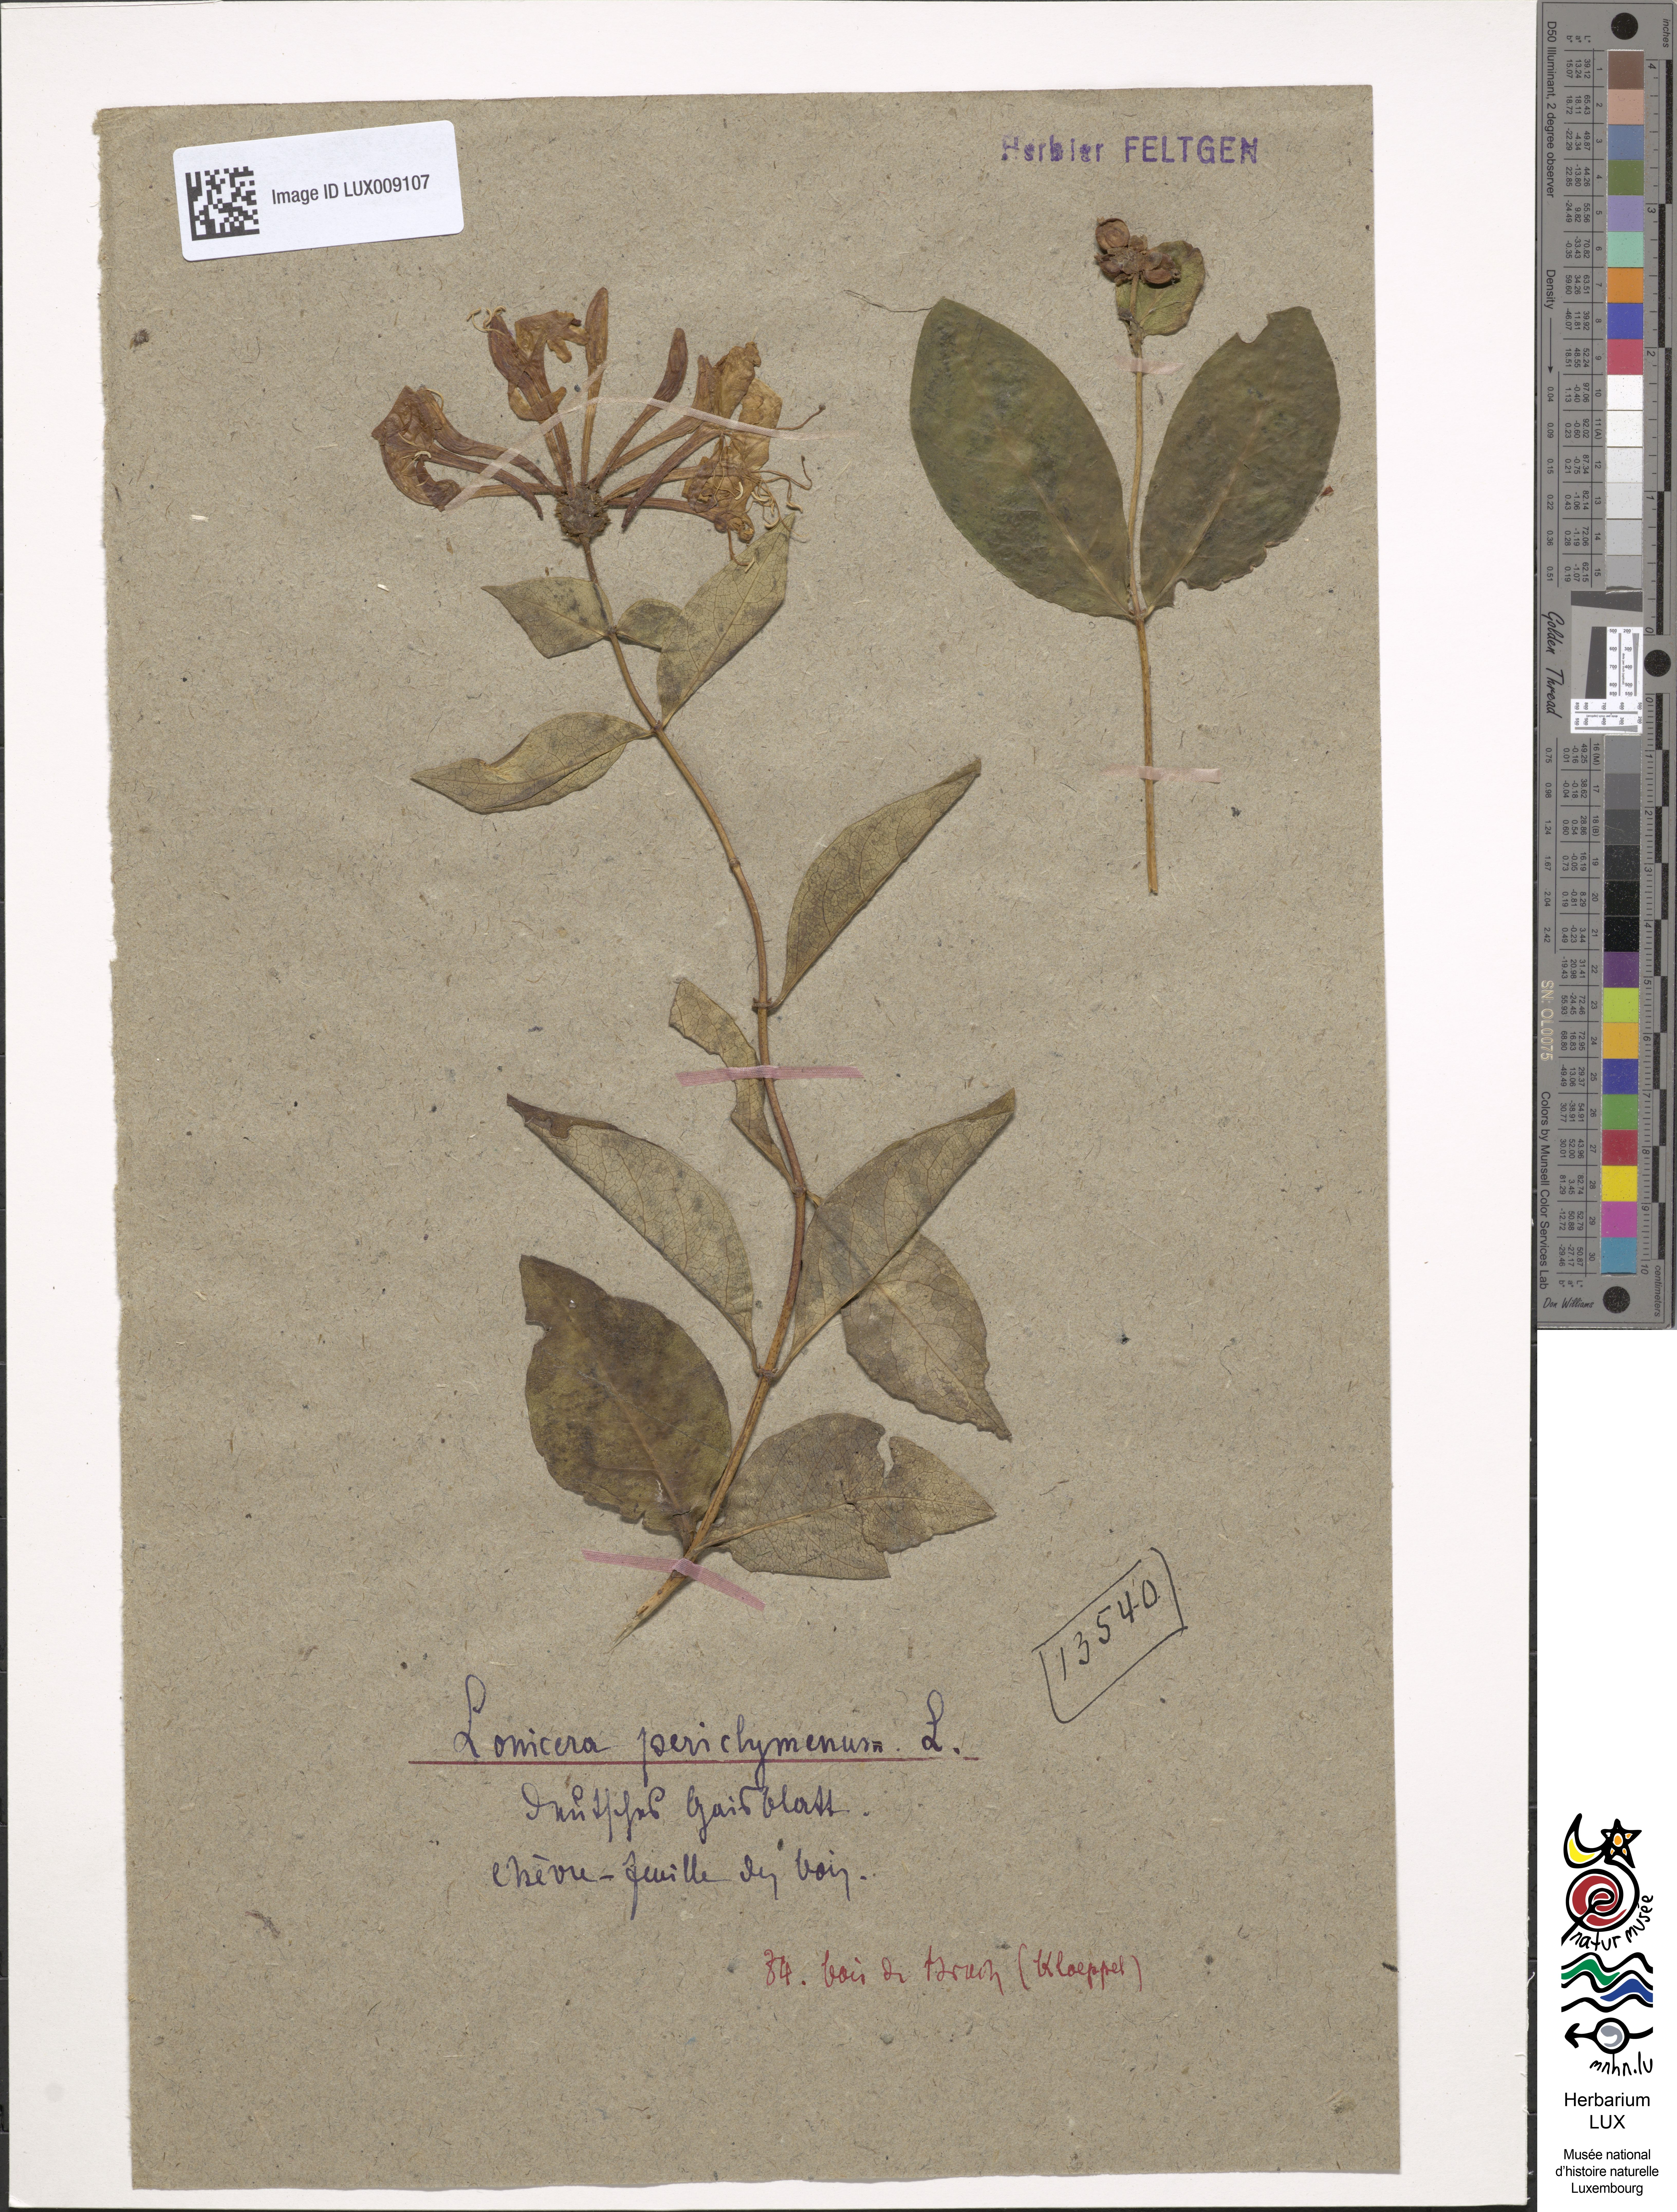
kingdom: Plantae
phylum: Tracheophyta
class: Magnoliopsida
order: Dipsacales
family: Caprifoliaceae
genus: Lonicera
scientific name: Lonicera periclymenum
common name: European honeysuckle
